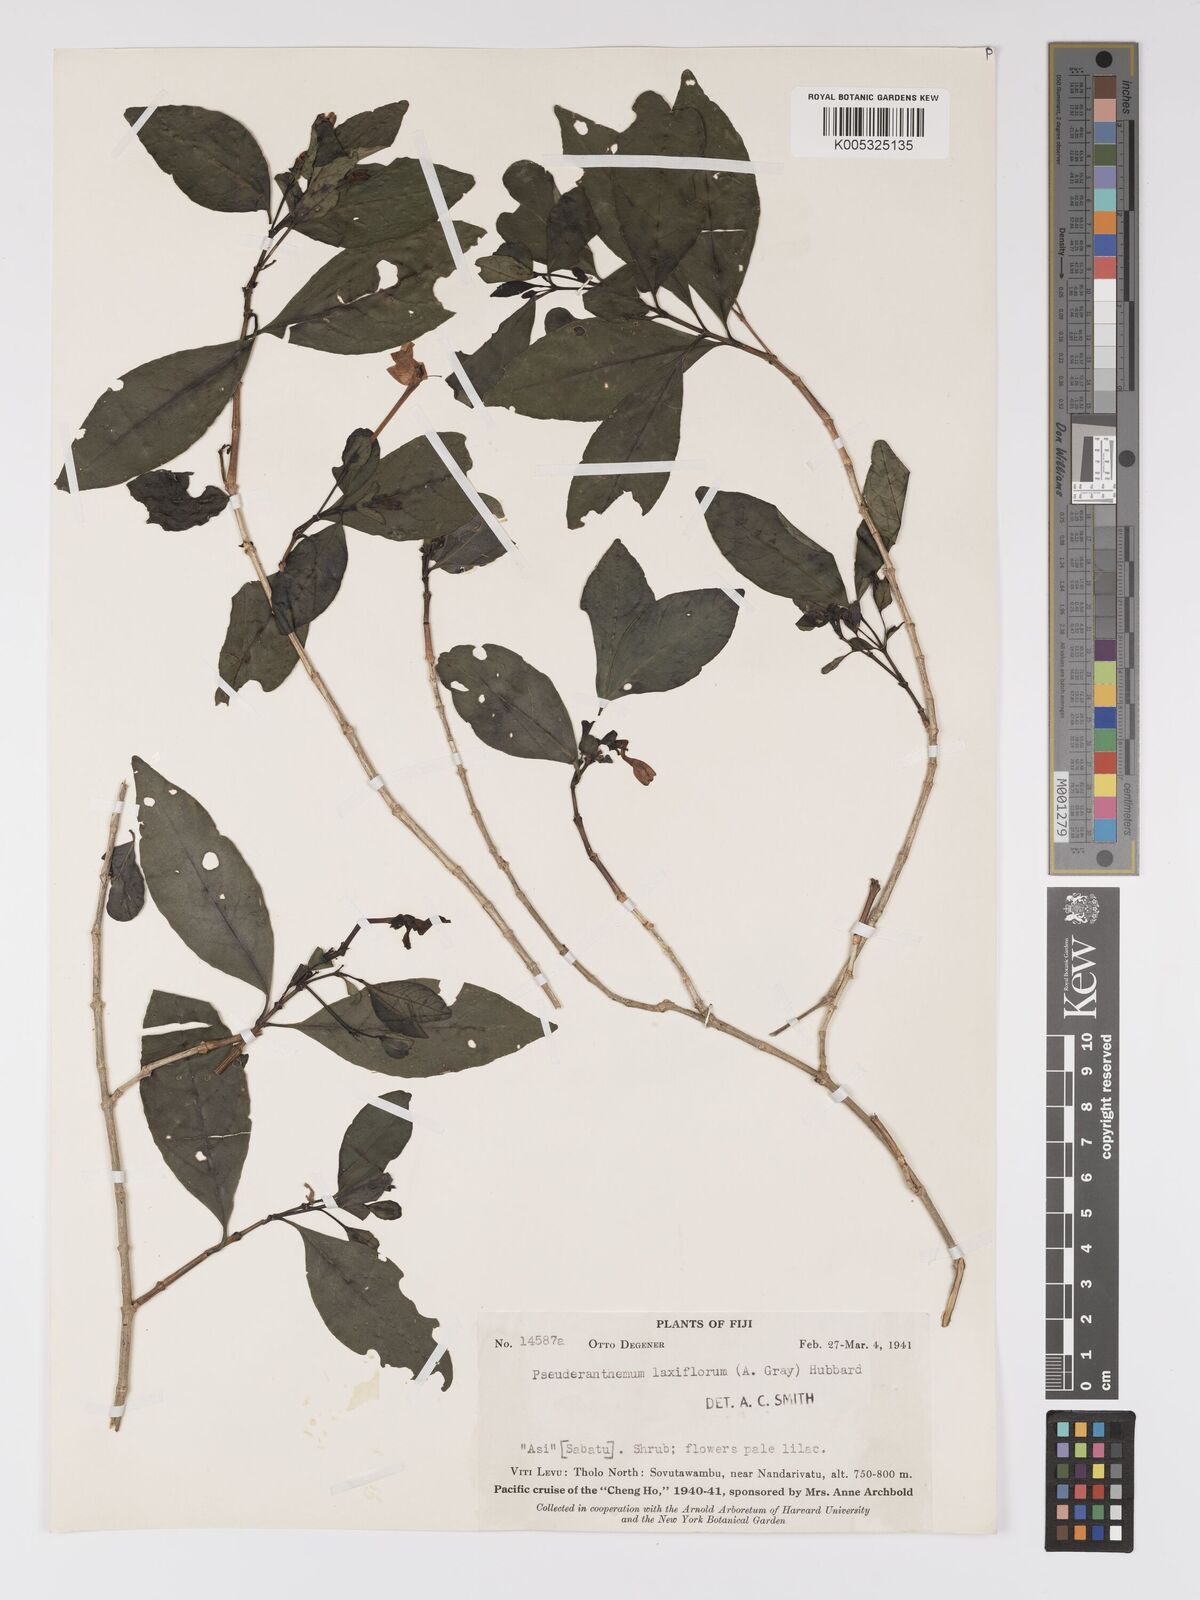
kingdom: Plantae
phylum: Tracheophyta
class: Magnoliopsida
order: Lamiales
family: Acanthaceae
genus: Pseuderanthemum
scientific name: Pseuderanthemum laxiflorum
